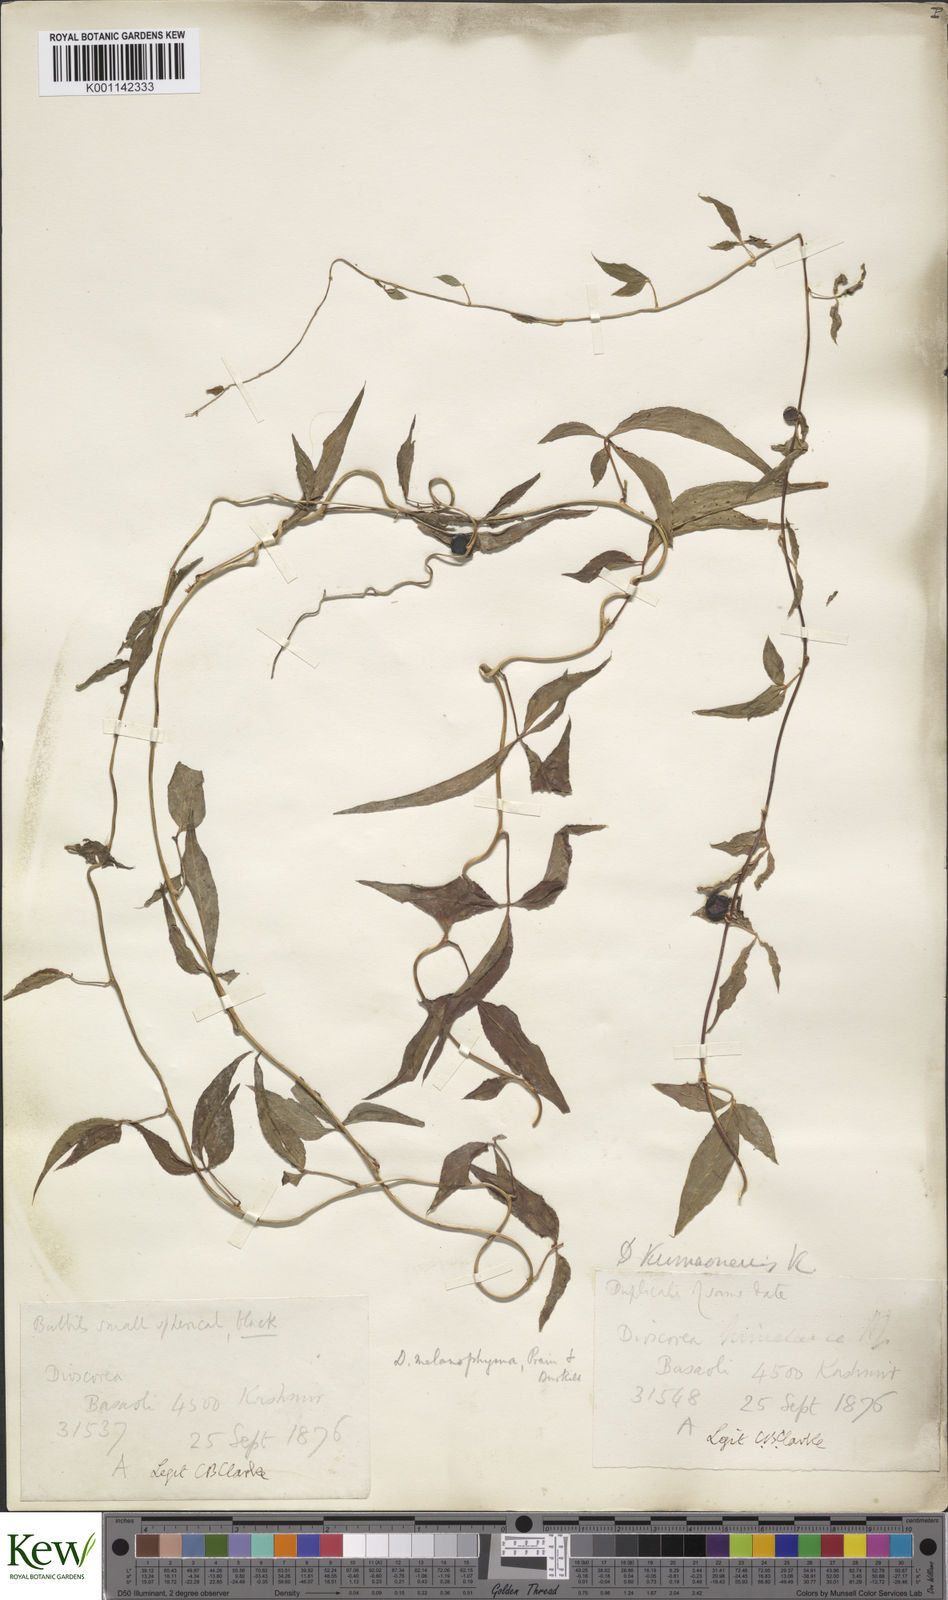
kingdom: Plantae
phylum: Tracheophyta
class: Liliopsida
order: Dioscoreales
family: Dioscoreaceae
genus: Dioscorea
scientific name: Dioscorea melanophyma
